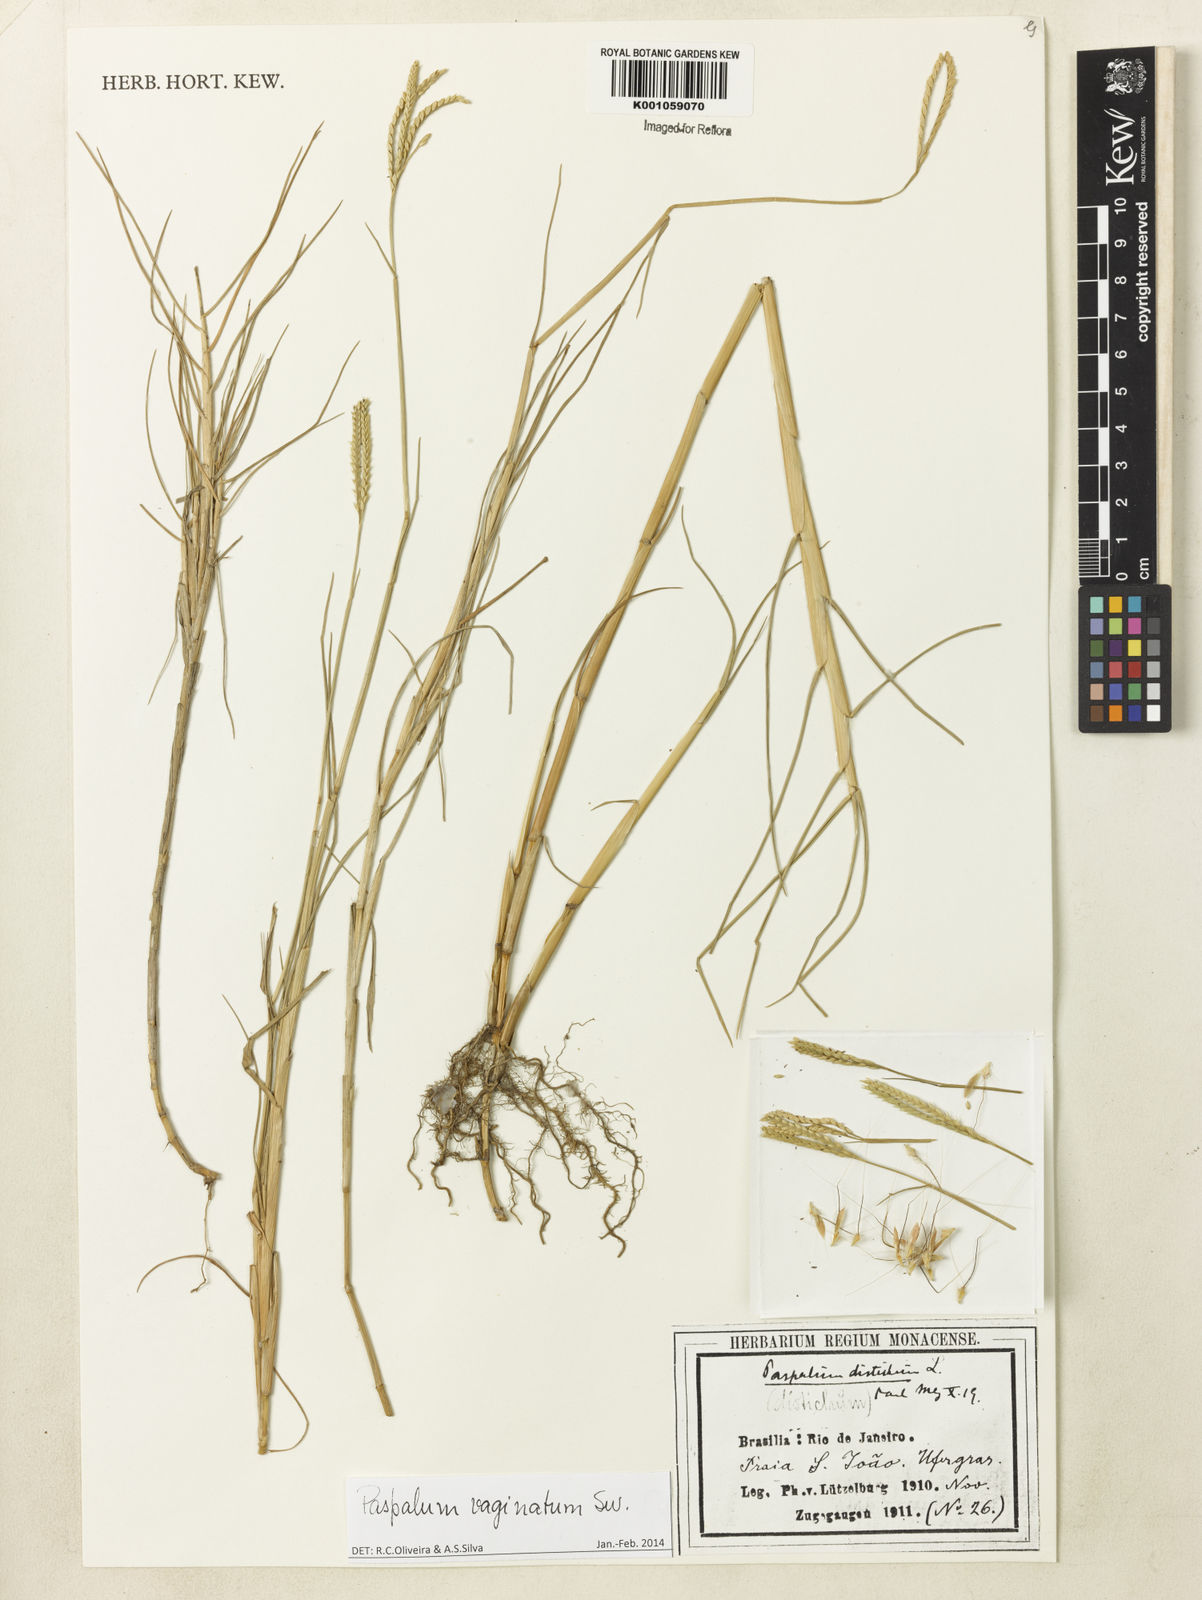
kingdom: Plantae
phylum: Tracheophyta
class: Liliopsida
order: Poales
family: Poaceae
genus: Paspalum
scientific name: Paspalum vaginatum
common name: Seashore paspalum
